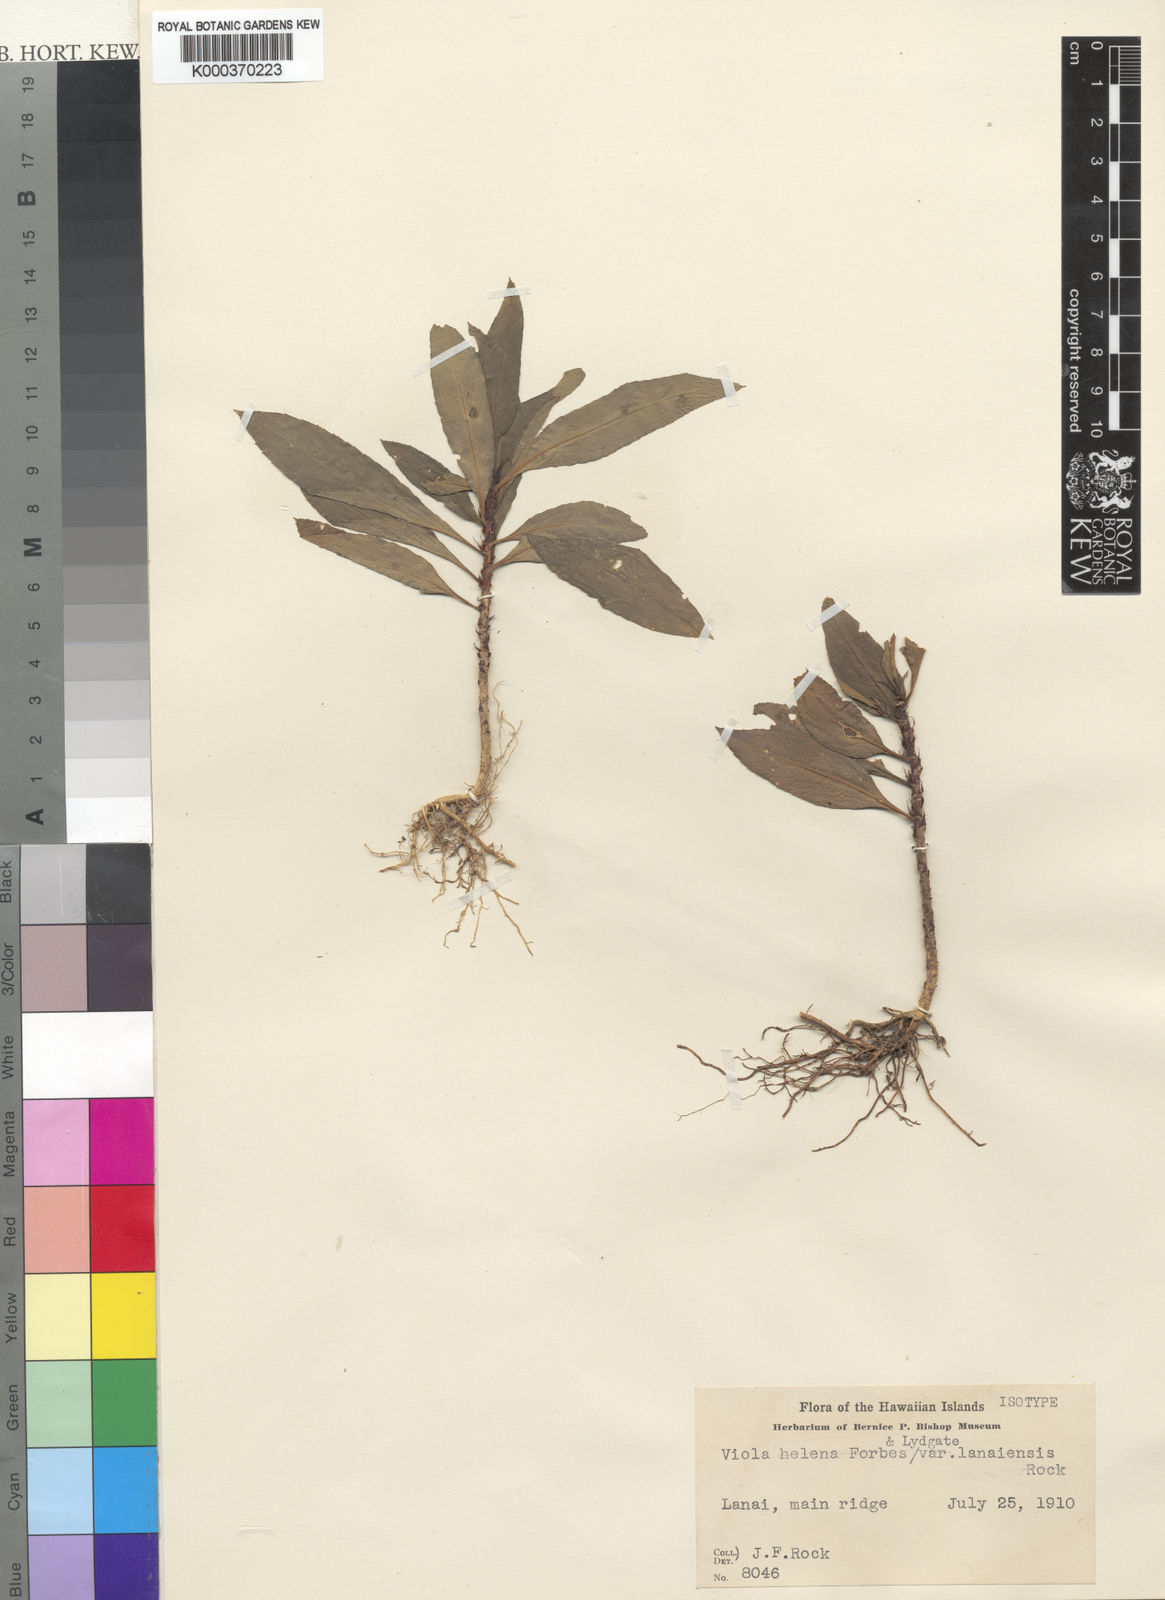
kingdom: Plantae
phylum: Tracheophyta
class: Magnoliopsida
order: Malpighiales
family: Violaceae
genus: Viola
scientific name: Viola lanaiensis
